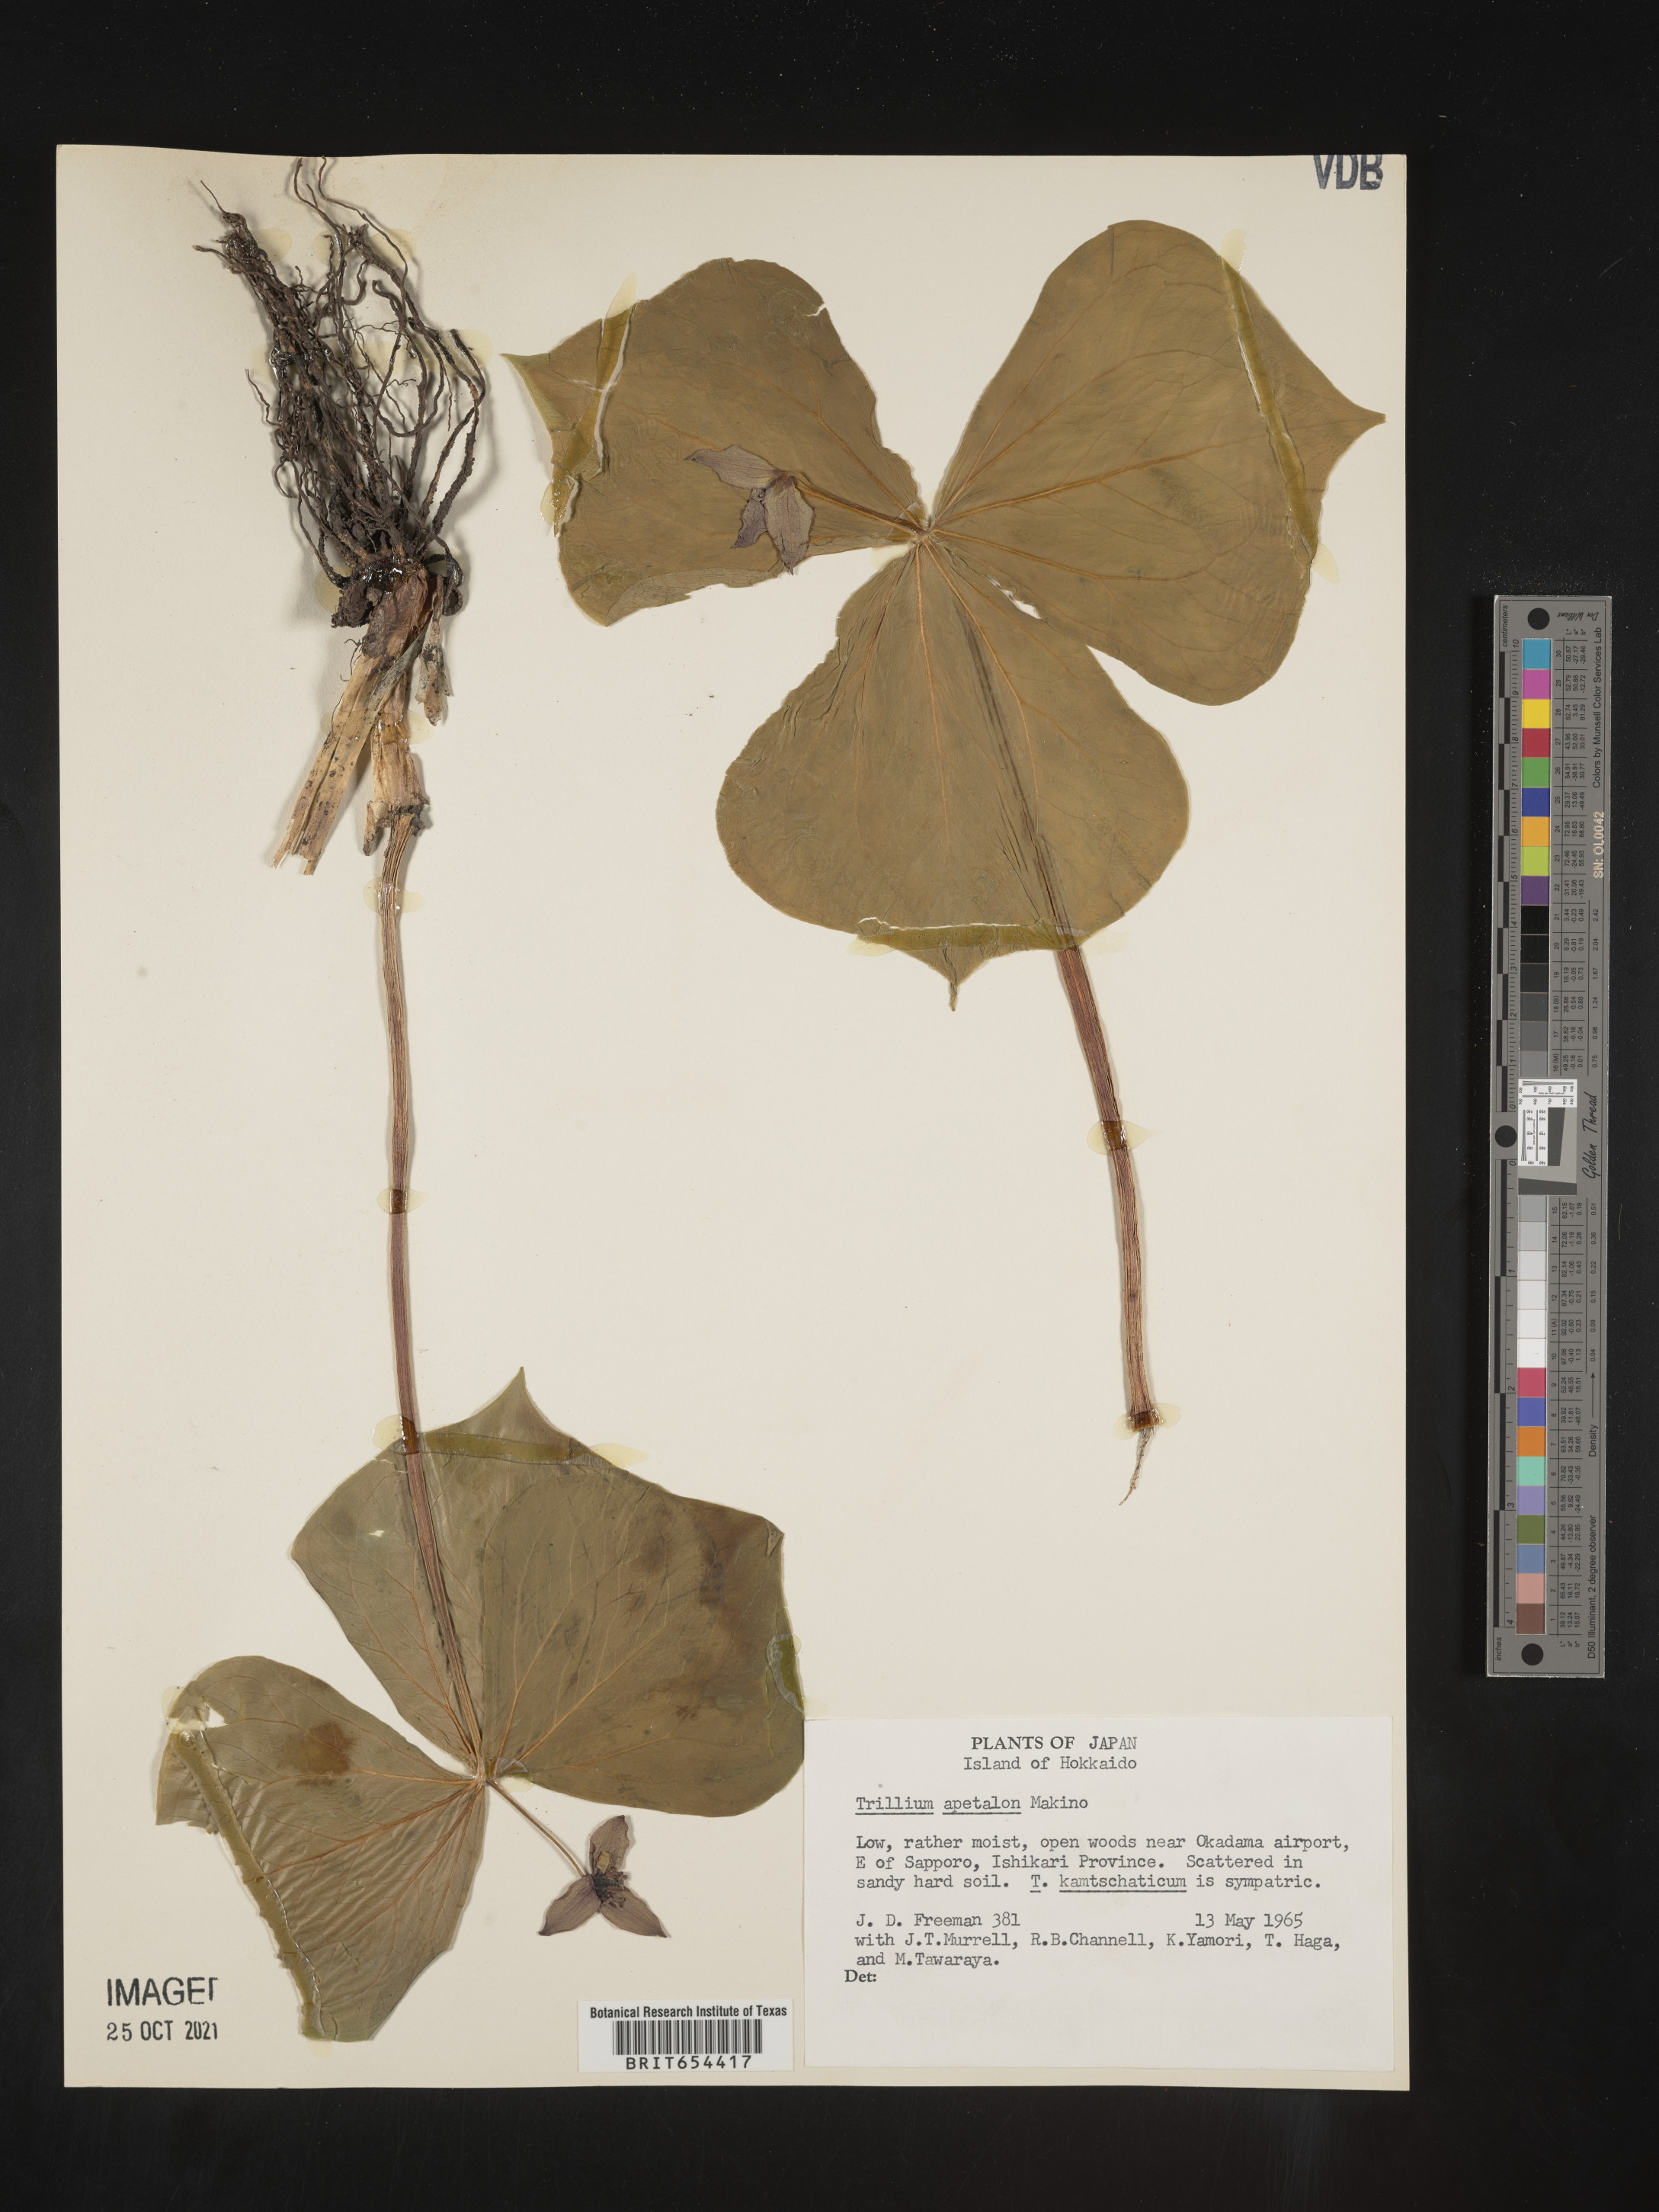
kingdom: Plantae
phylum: Tracheophyta
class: Liliopsida
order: Liliales
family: Melanthiaceae
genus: Trillium
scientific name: Trillium
